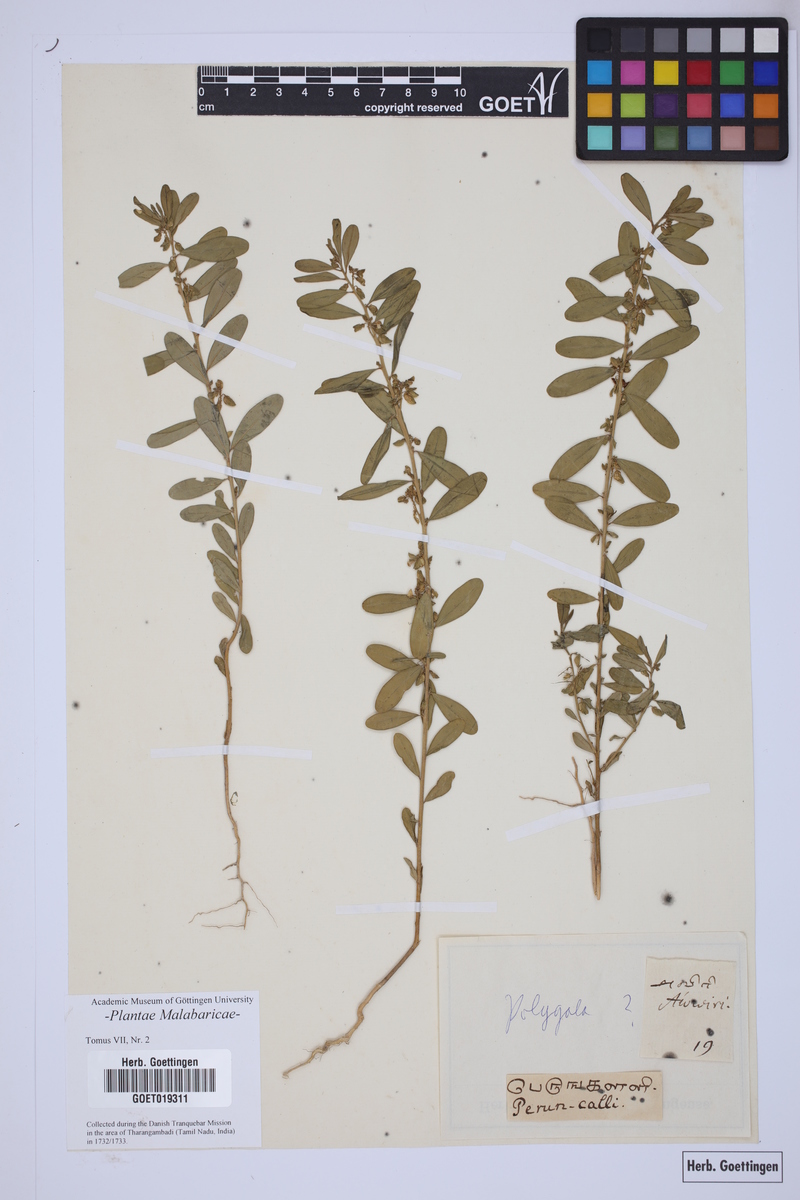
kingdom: Plantae
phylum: Tracheophyta
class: Magnoliopsida
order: Fabales
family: Polygalaceae
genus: Polygala
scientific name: Polygala
